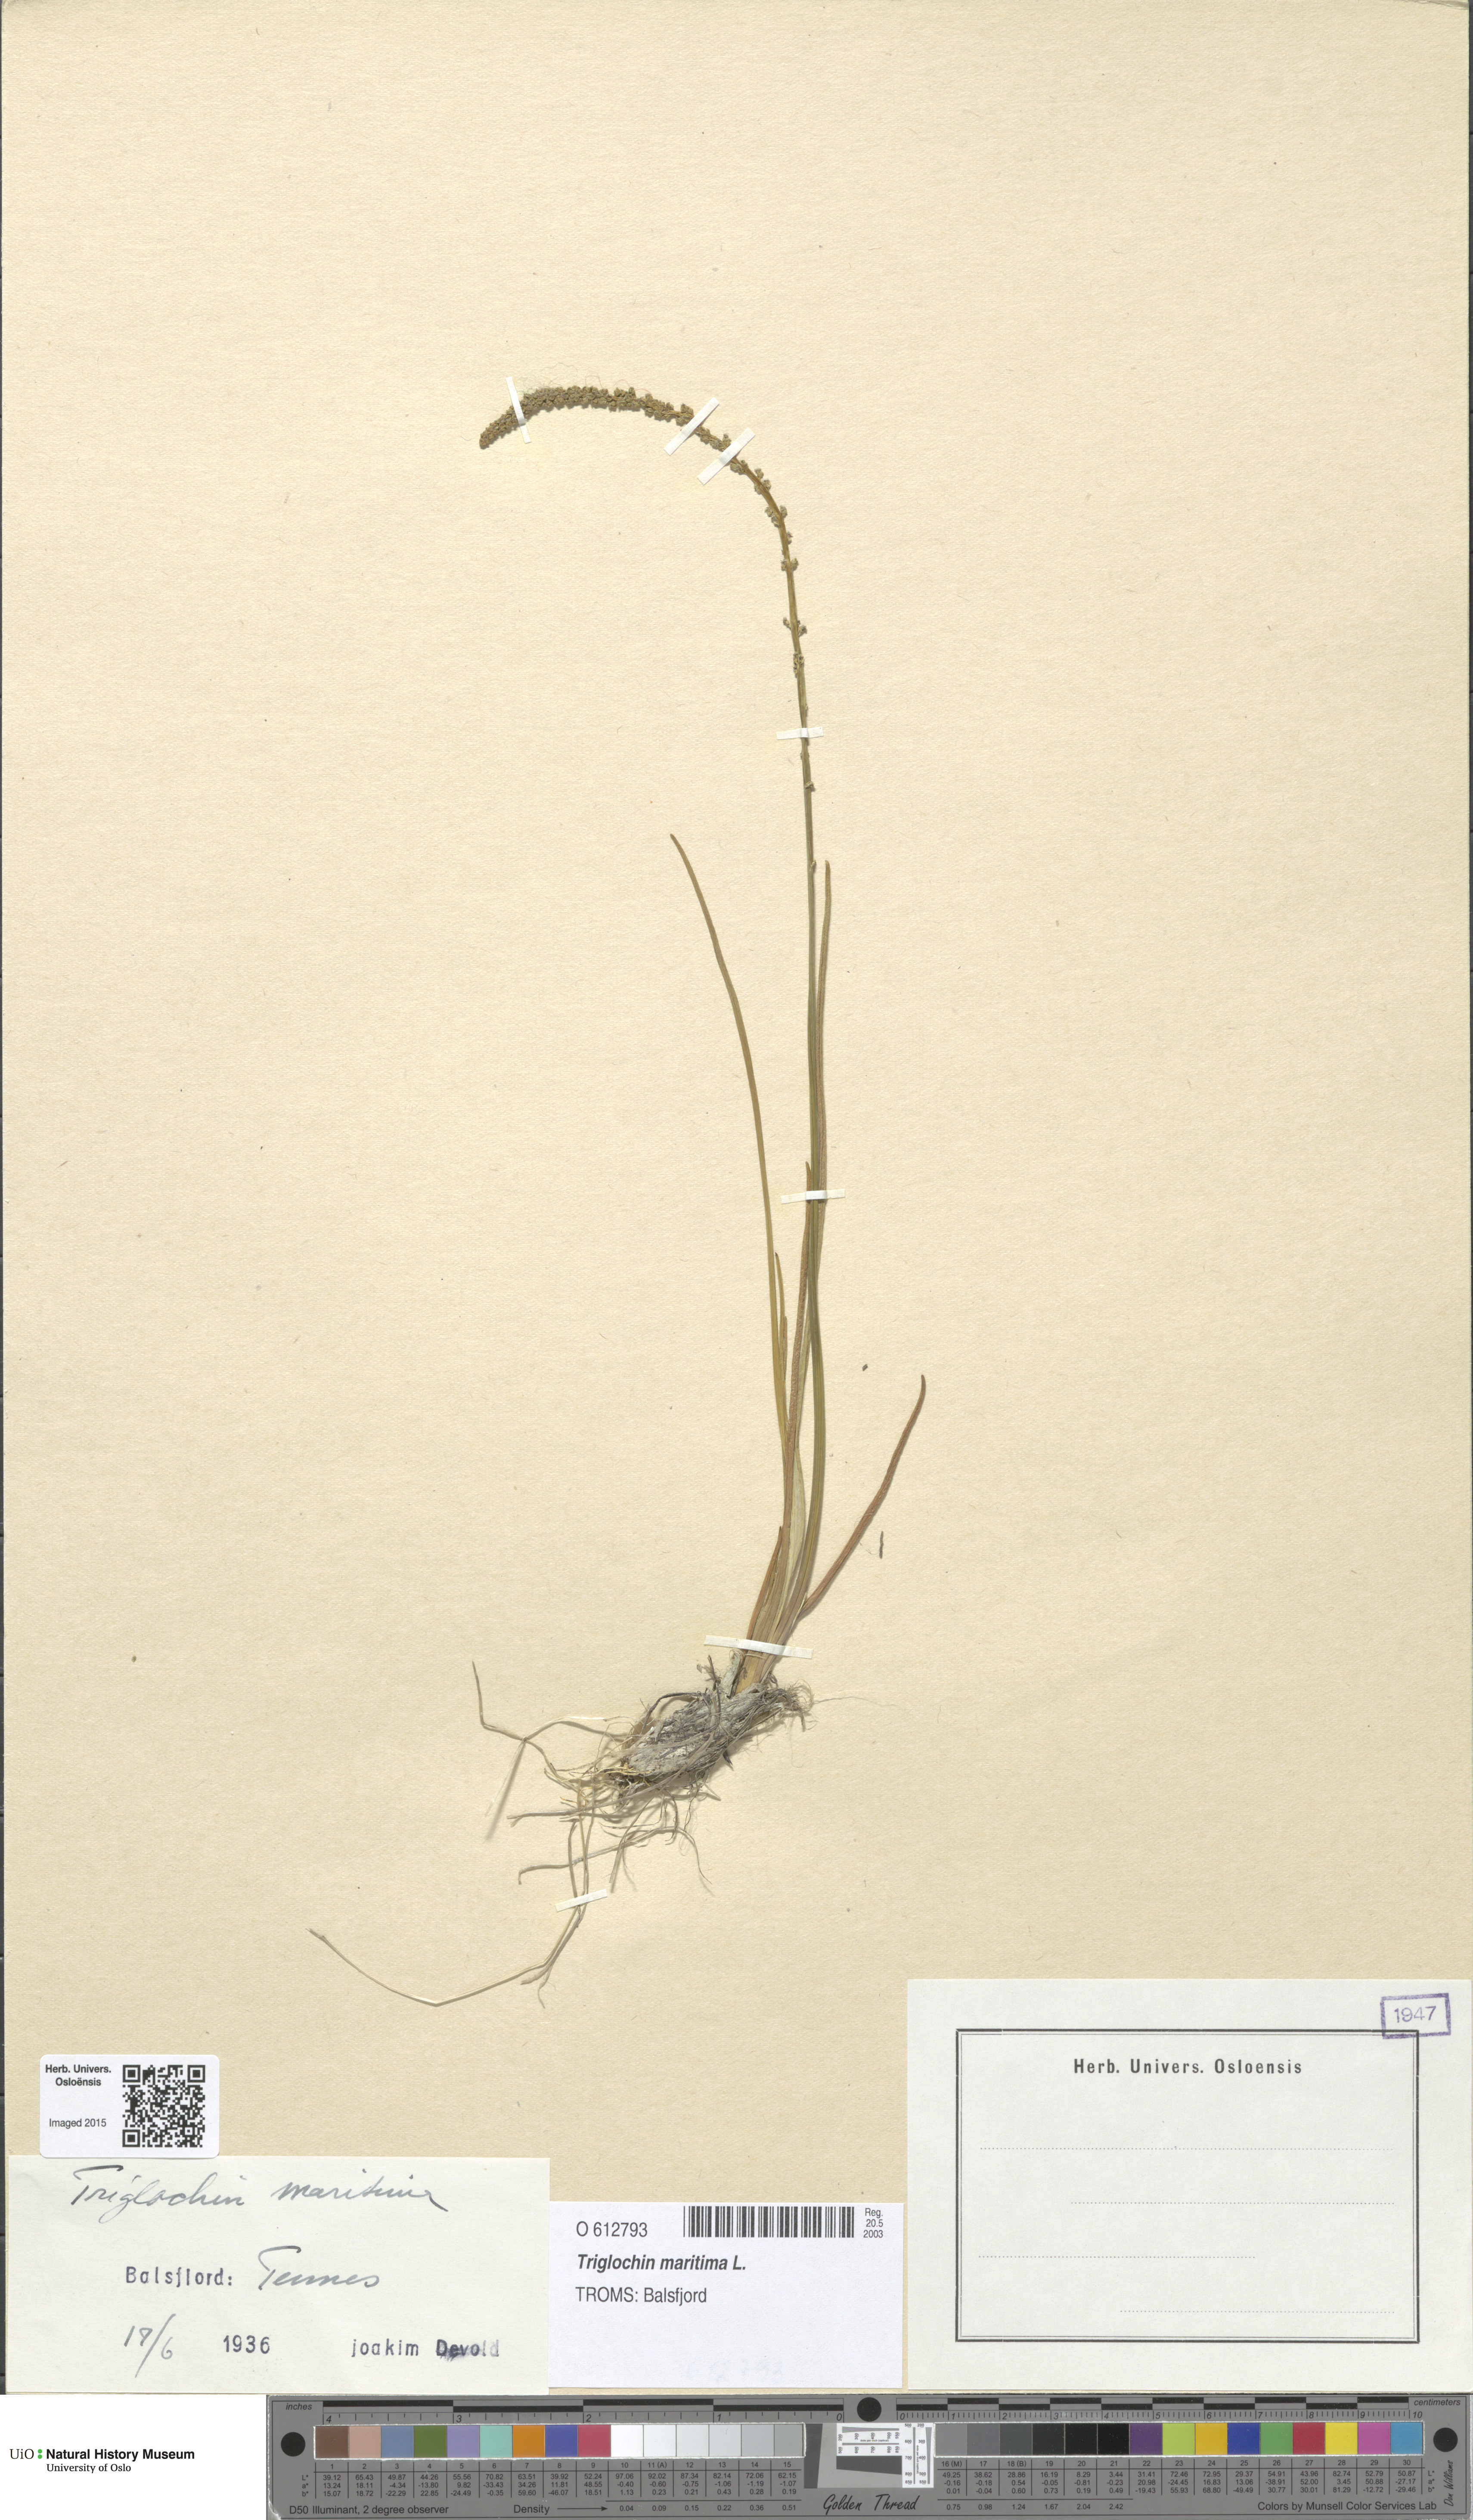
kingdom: Plantae
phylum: Tracheophyta
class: Liliopsida
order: Alismatales
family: Juncaginaceae
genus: Triglochin
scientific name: Triglochin maritima
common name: Sea arrowgrass
